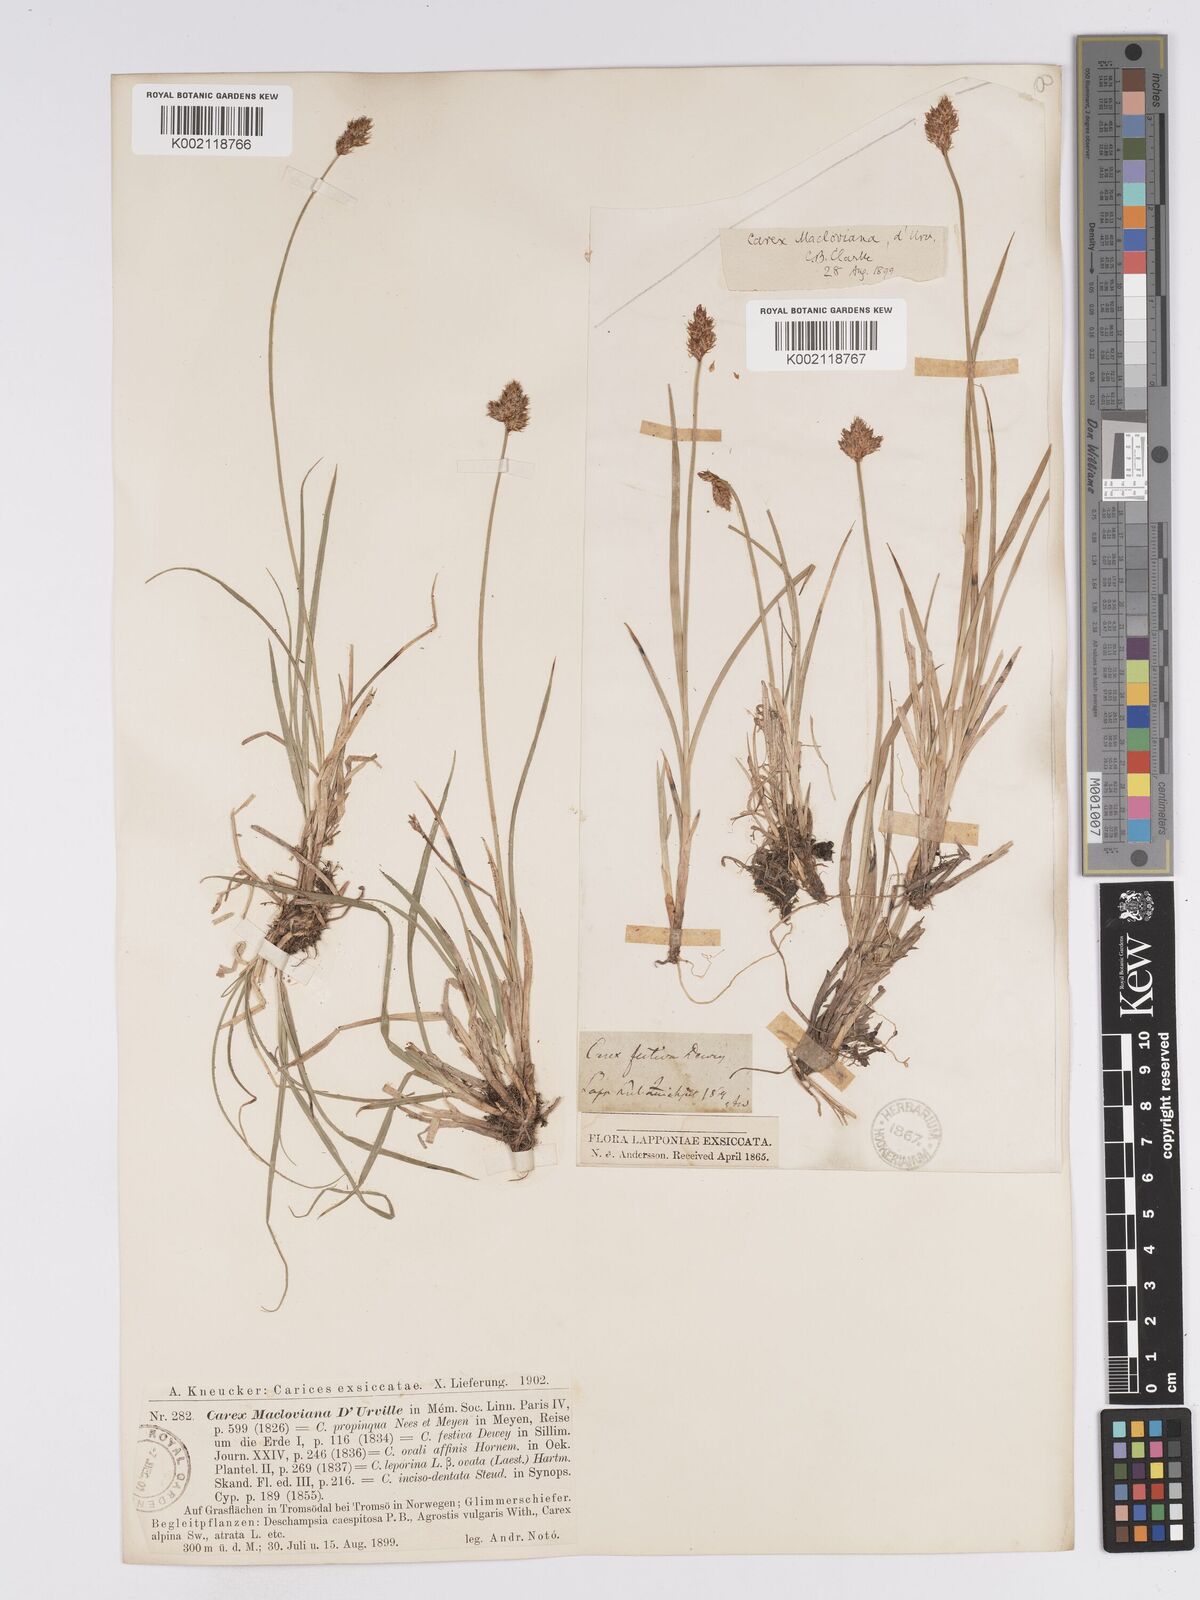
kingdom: Plantae
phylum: Tracheophyta
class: Liliopsida
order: Poales
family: Cyperaceae
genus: Carex
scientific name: Carex macloviana
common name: Falkland island sedge
